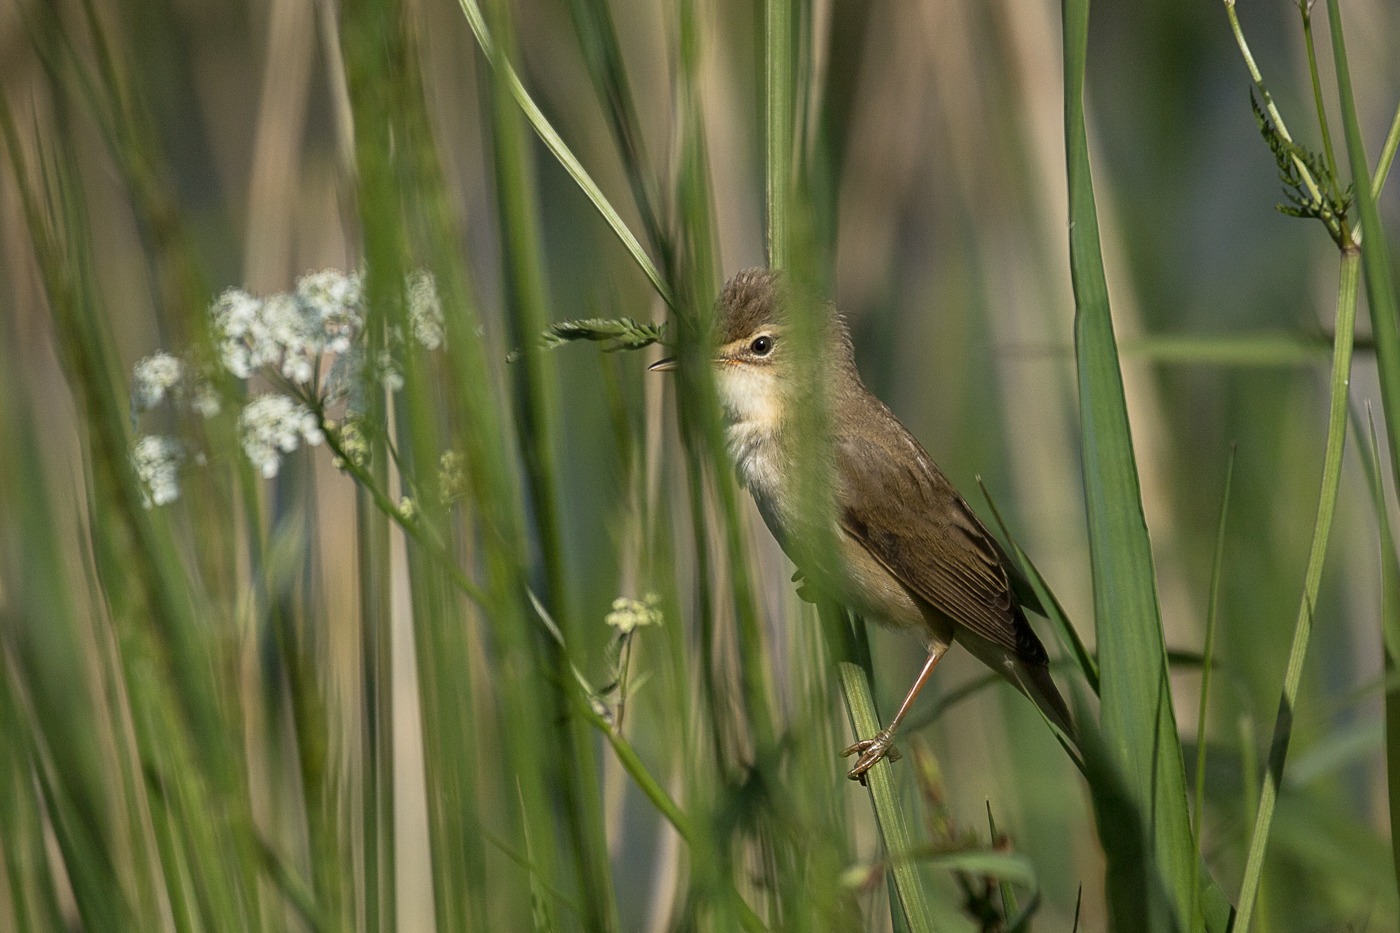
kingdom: Animalia
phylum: Chordata
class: Aves
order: Passeriformes
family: Acrocephalidae
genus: Acrocephalus
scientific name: Acrocephalus palustris
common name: Kærsanger
